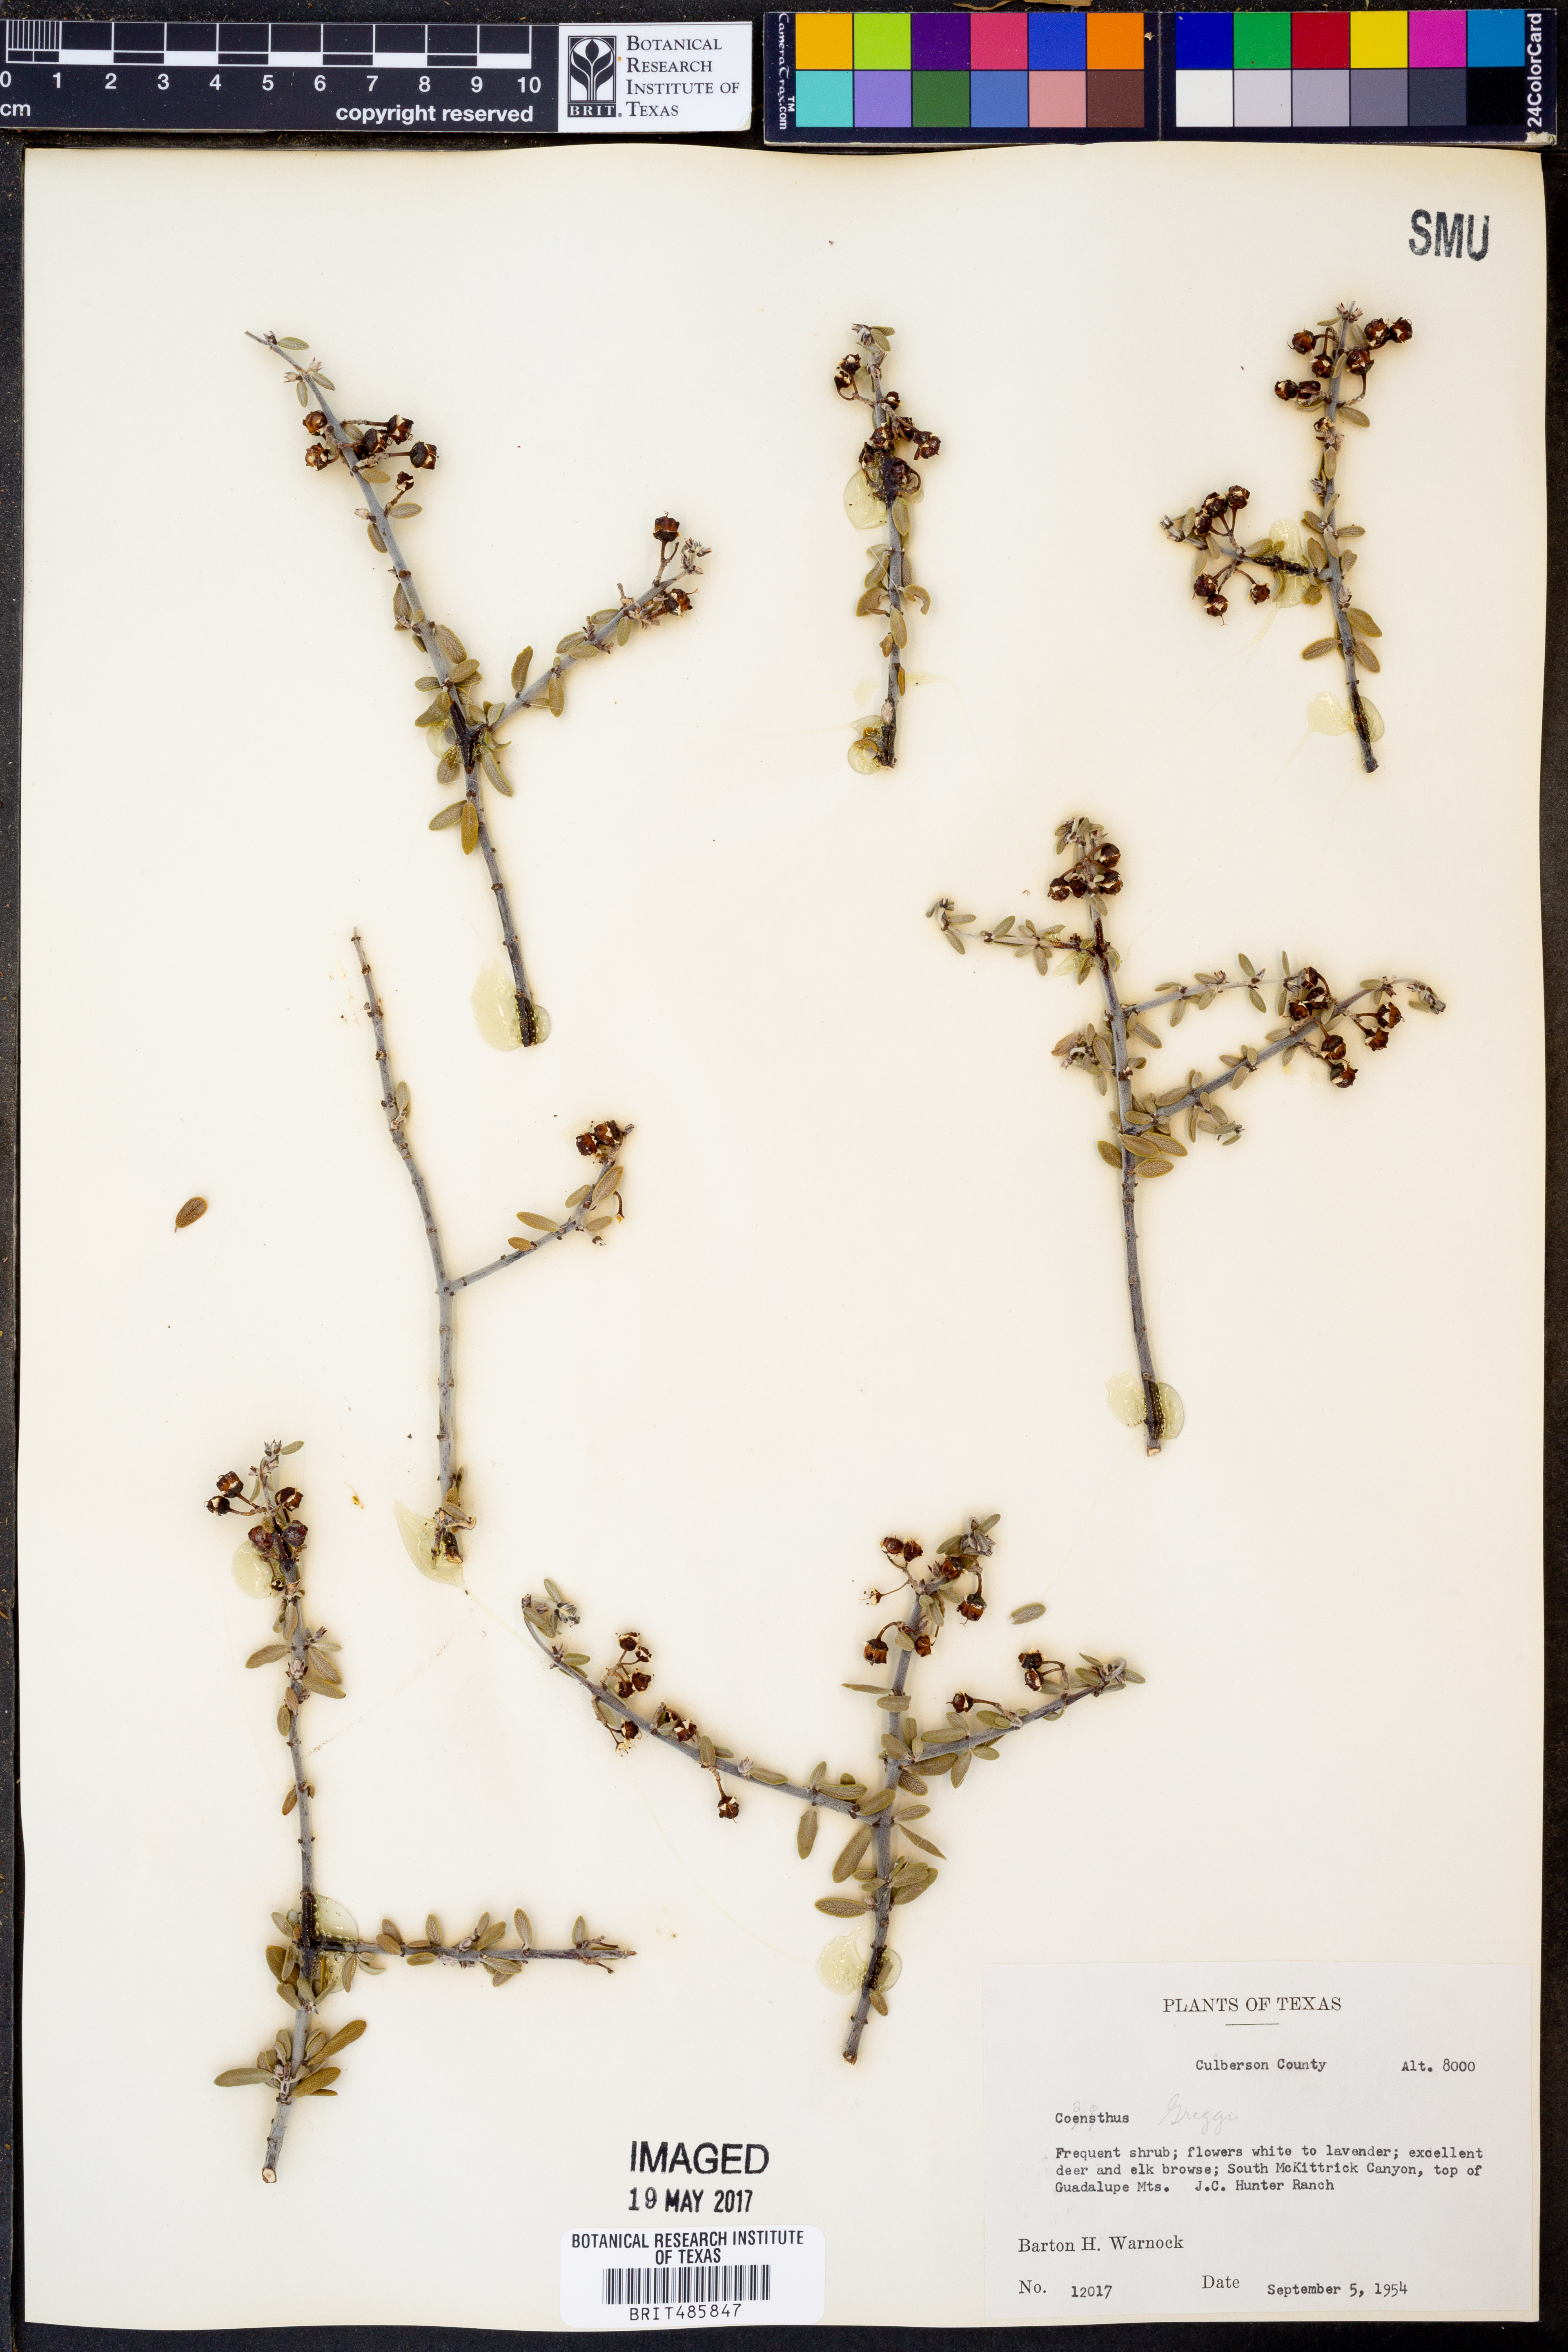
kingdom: Plantae
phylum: Tracheophyta
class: Magnoliopsida
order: Rosales
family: Rhamnaceae
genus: Ceanothus
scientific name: Ceanothus
